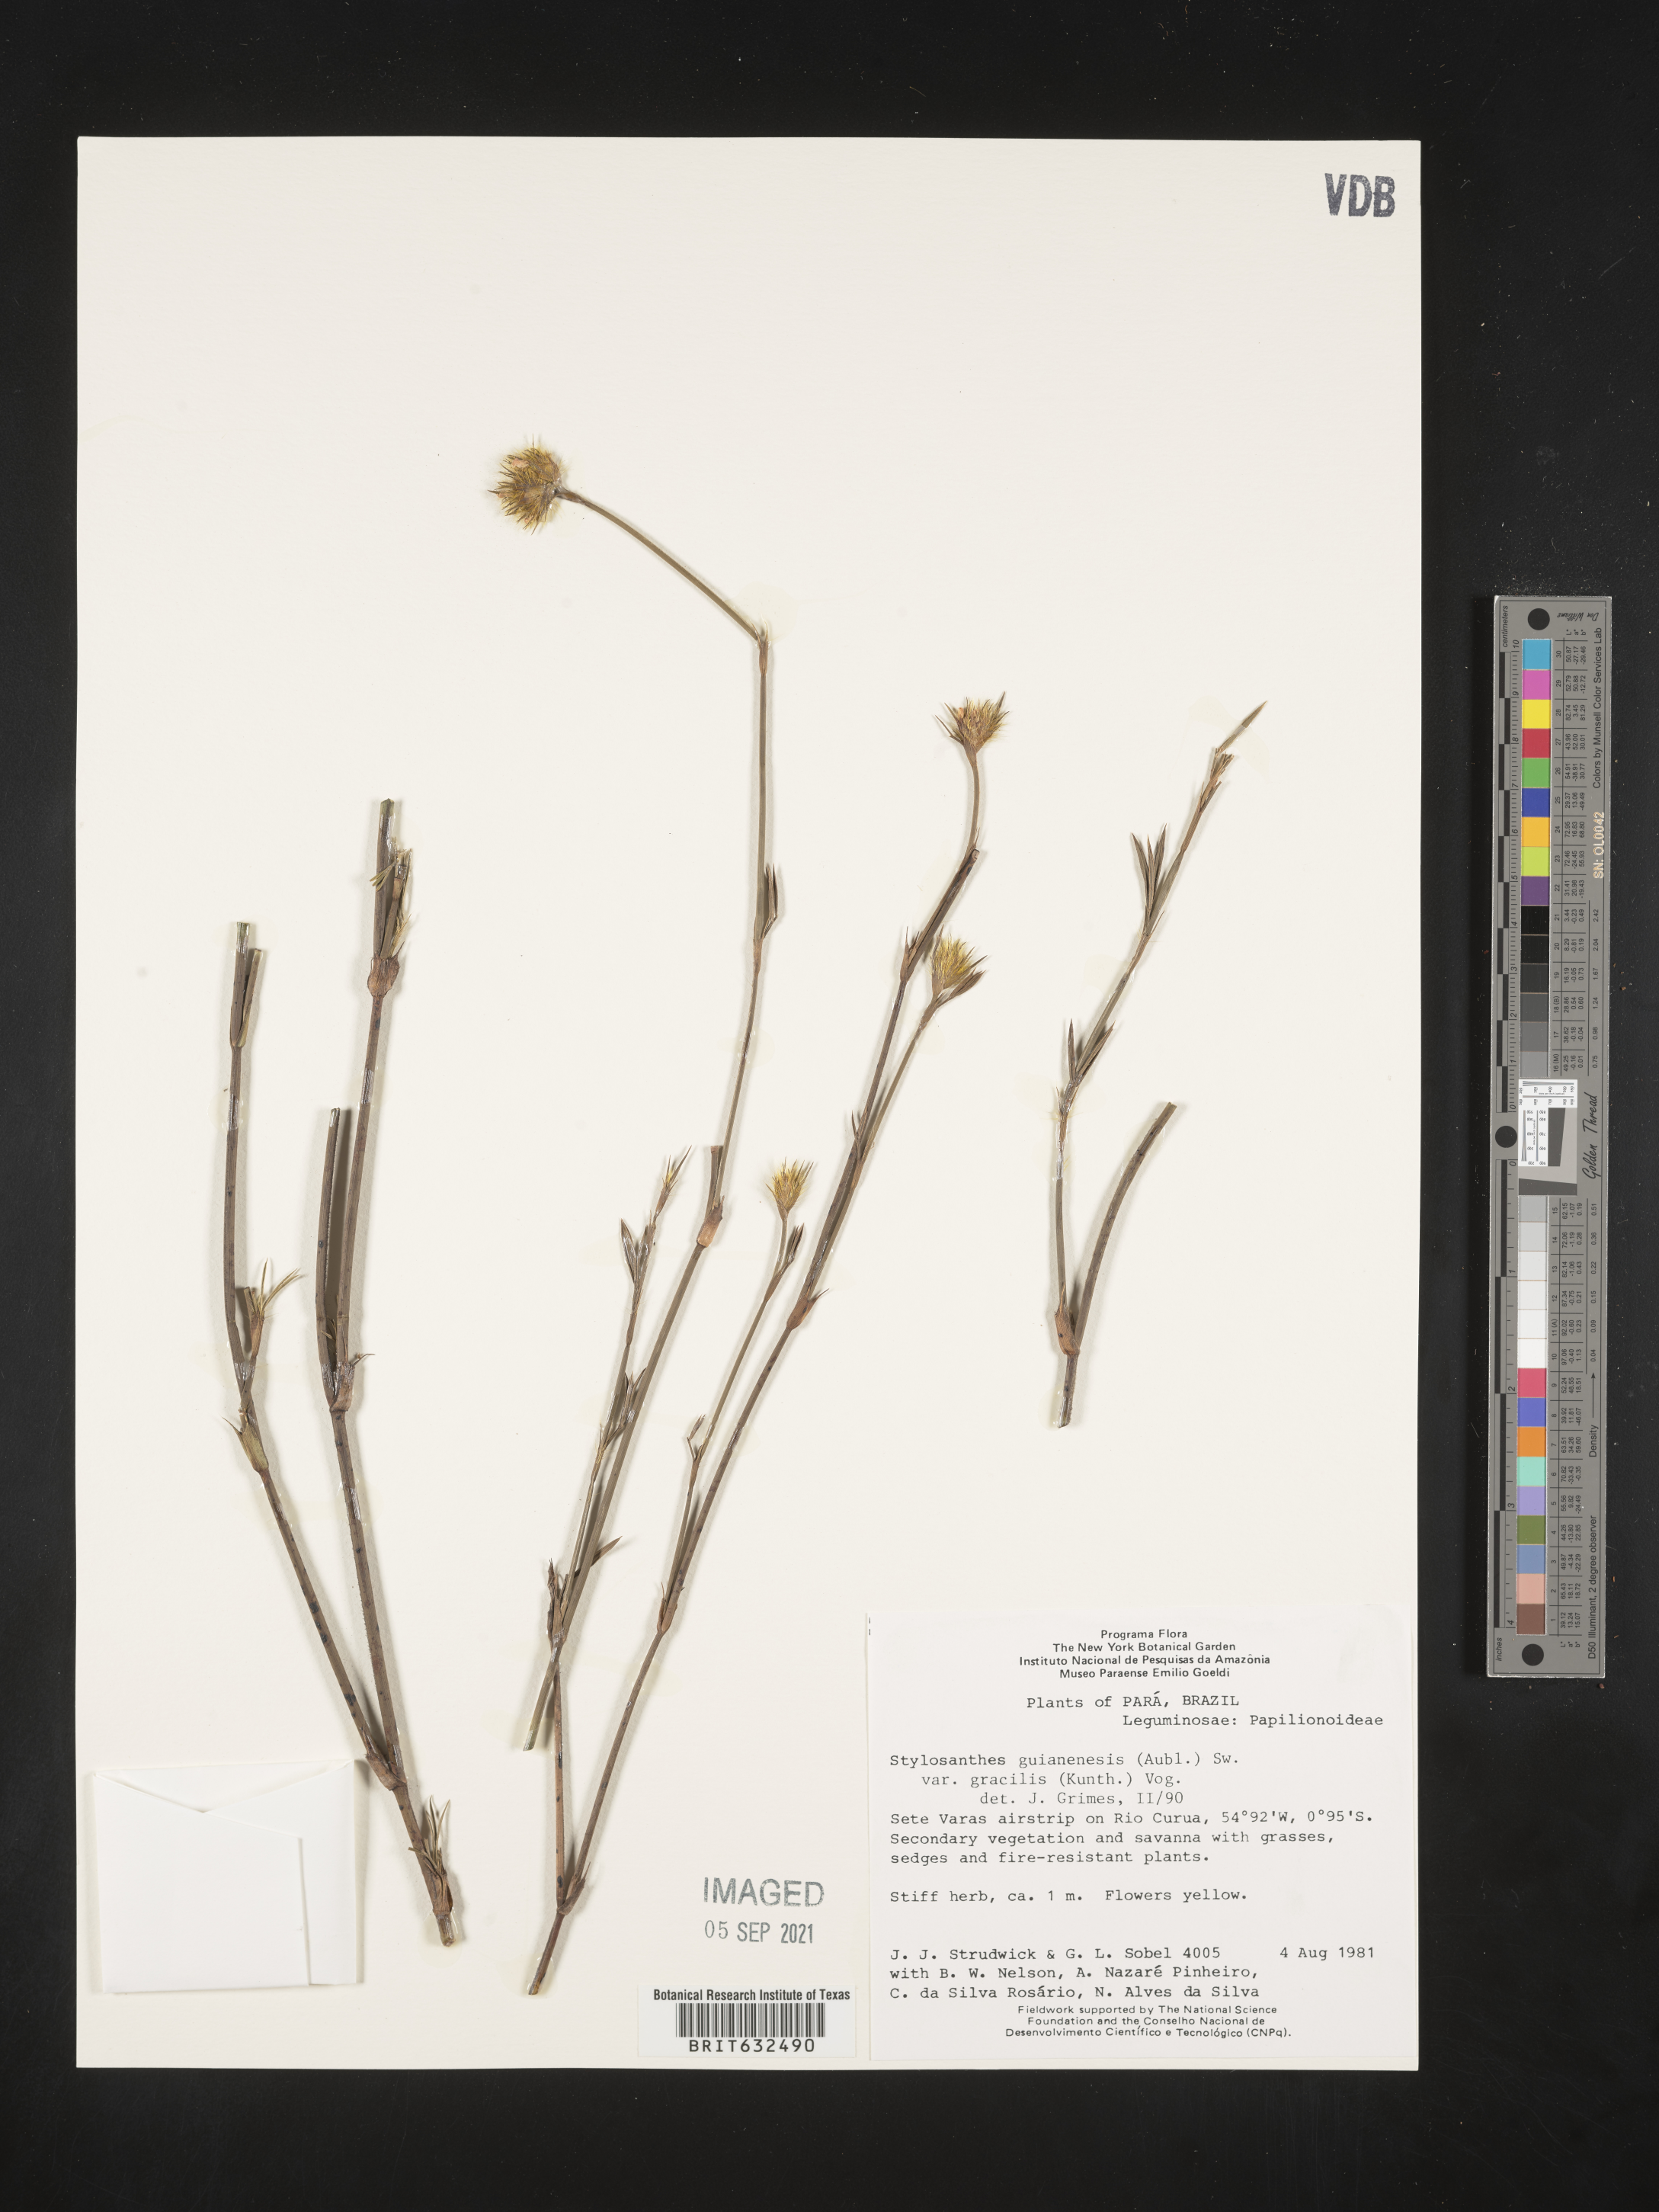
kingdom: Plantae
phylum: Tracheophyta
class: Magnoliopsida
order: Fabales
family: Fabaceae
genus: Stylosanthes
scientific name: Stylosanthes
